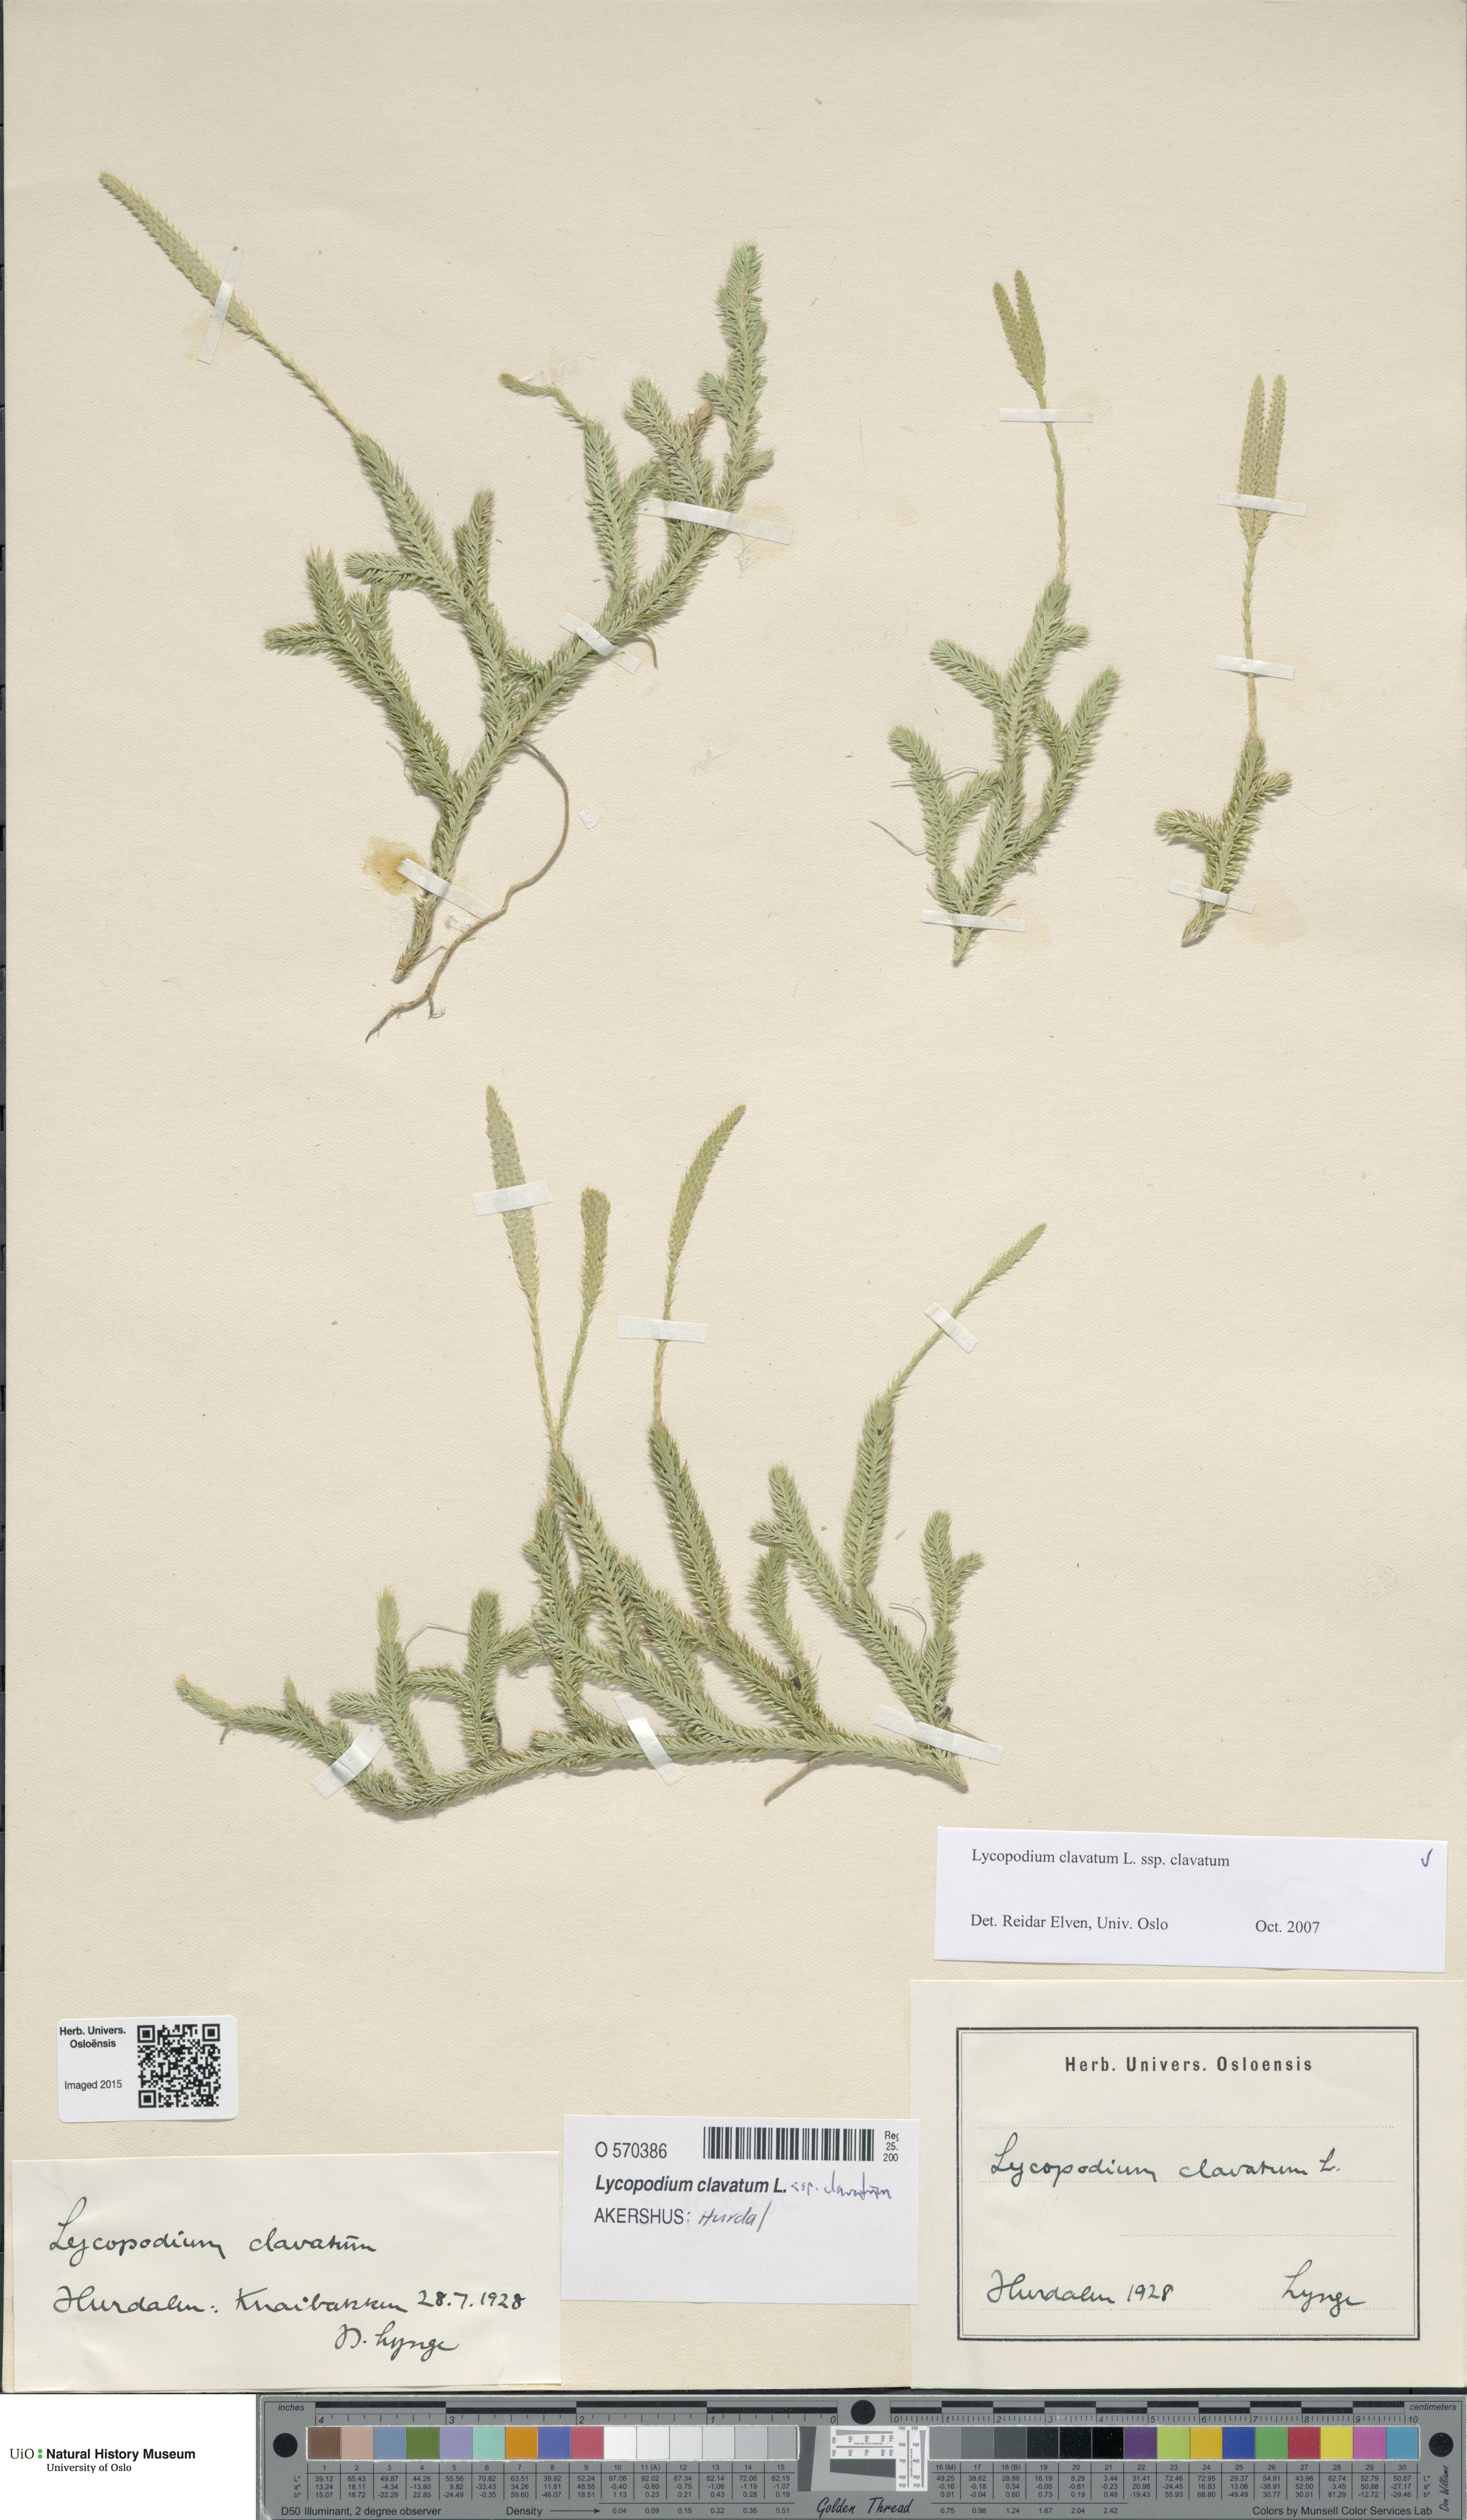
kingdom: Plantae
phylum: Tracheophyta
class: Lycopodiopsida
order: Lycopodiales
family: Lycopodiaceae
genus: Lycopodium
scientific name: Lycopodium clavatum
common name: Stag's-horn clubmoss
